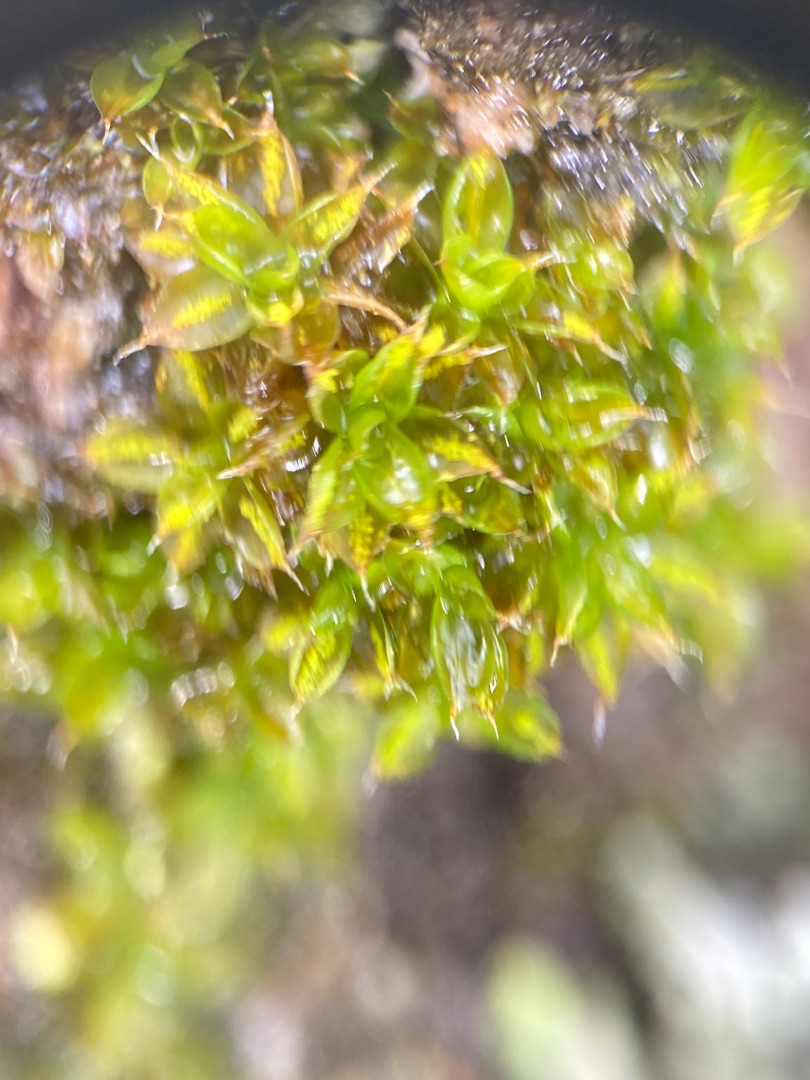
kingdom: Plantae
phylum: Bryophyta
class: Bryopsida
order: Pottiales
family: Pottiaceae
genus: Syntrichia
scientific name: Syntrichia papillosa
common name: Bark-hårstjerne
